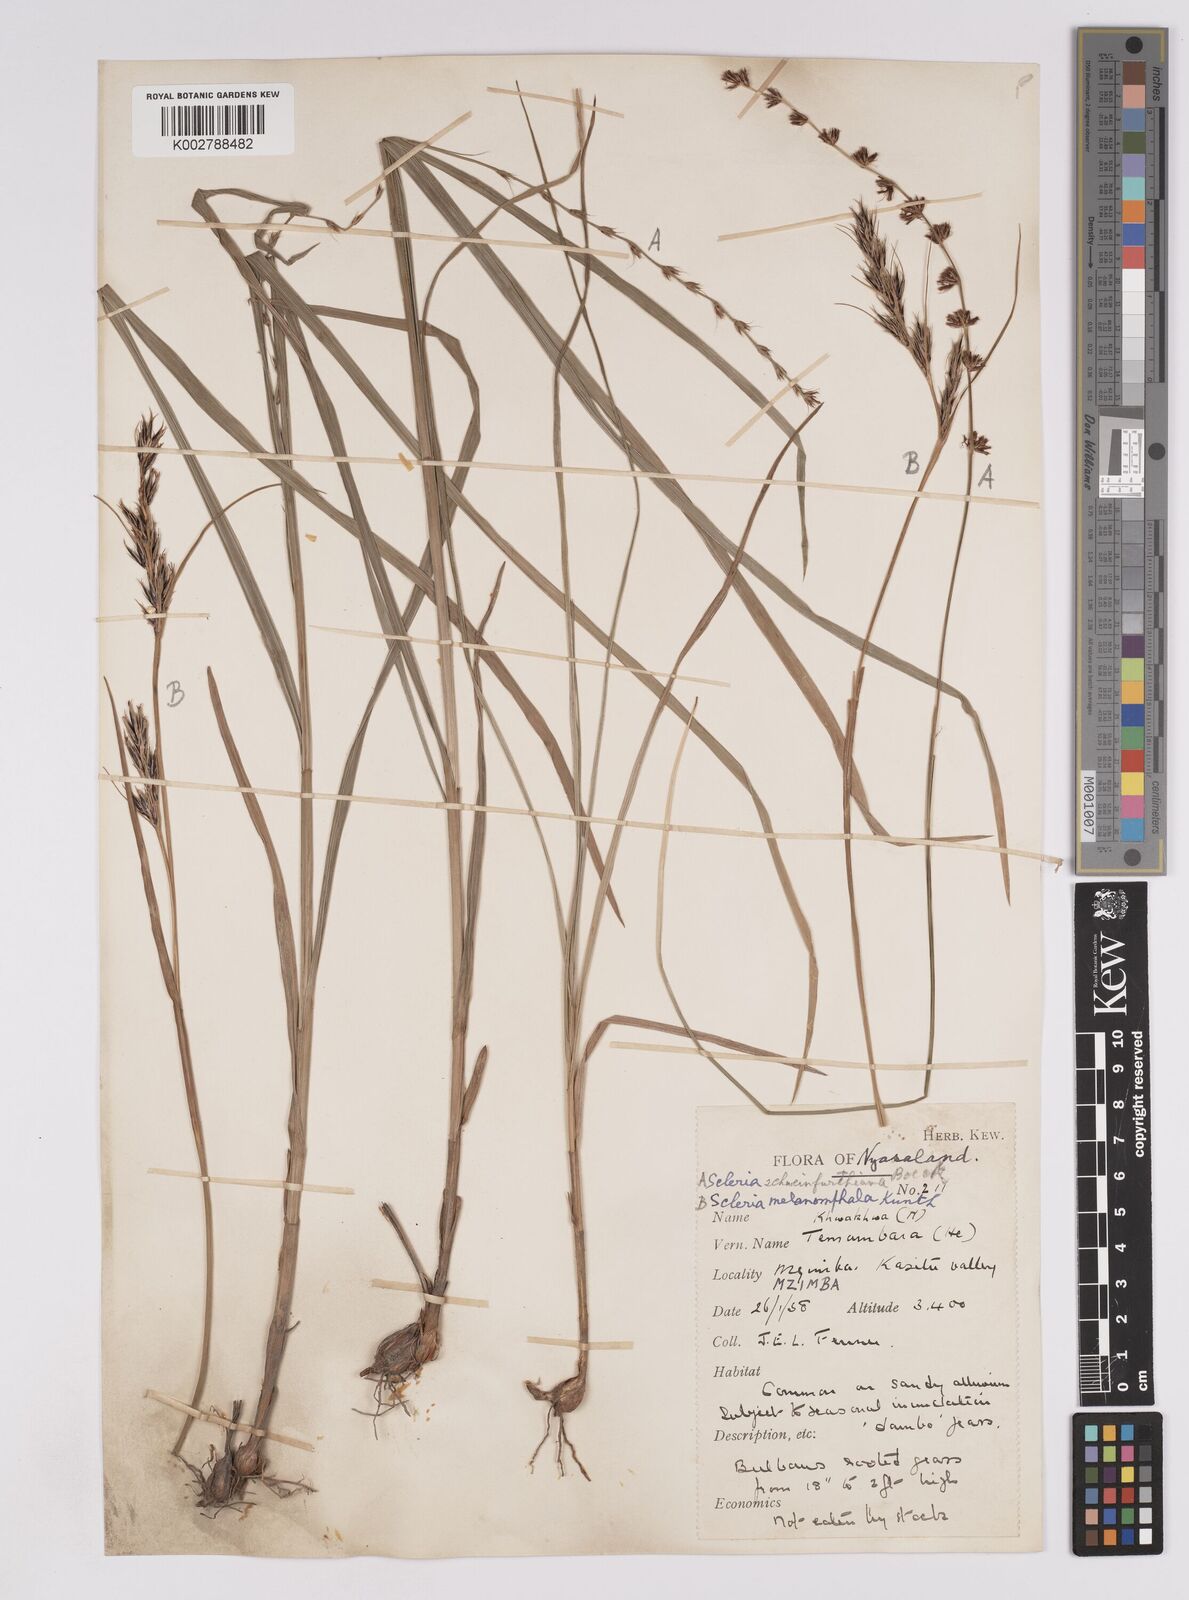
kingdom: Plantae
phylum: Tracheophyta
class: Liliopsida
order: Poales
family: Cyperaceae
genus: Scleria
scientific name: Scleria melanomphala
